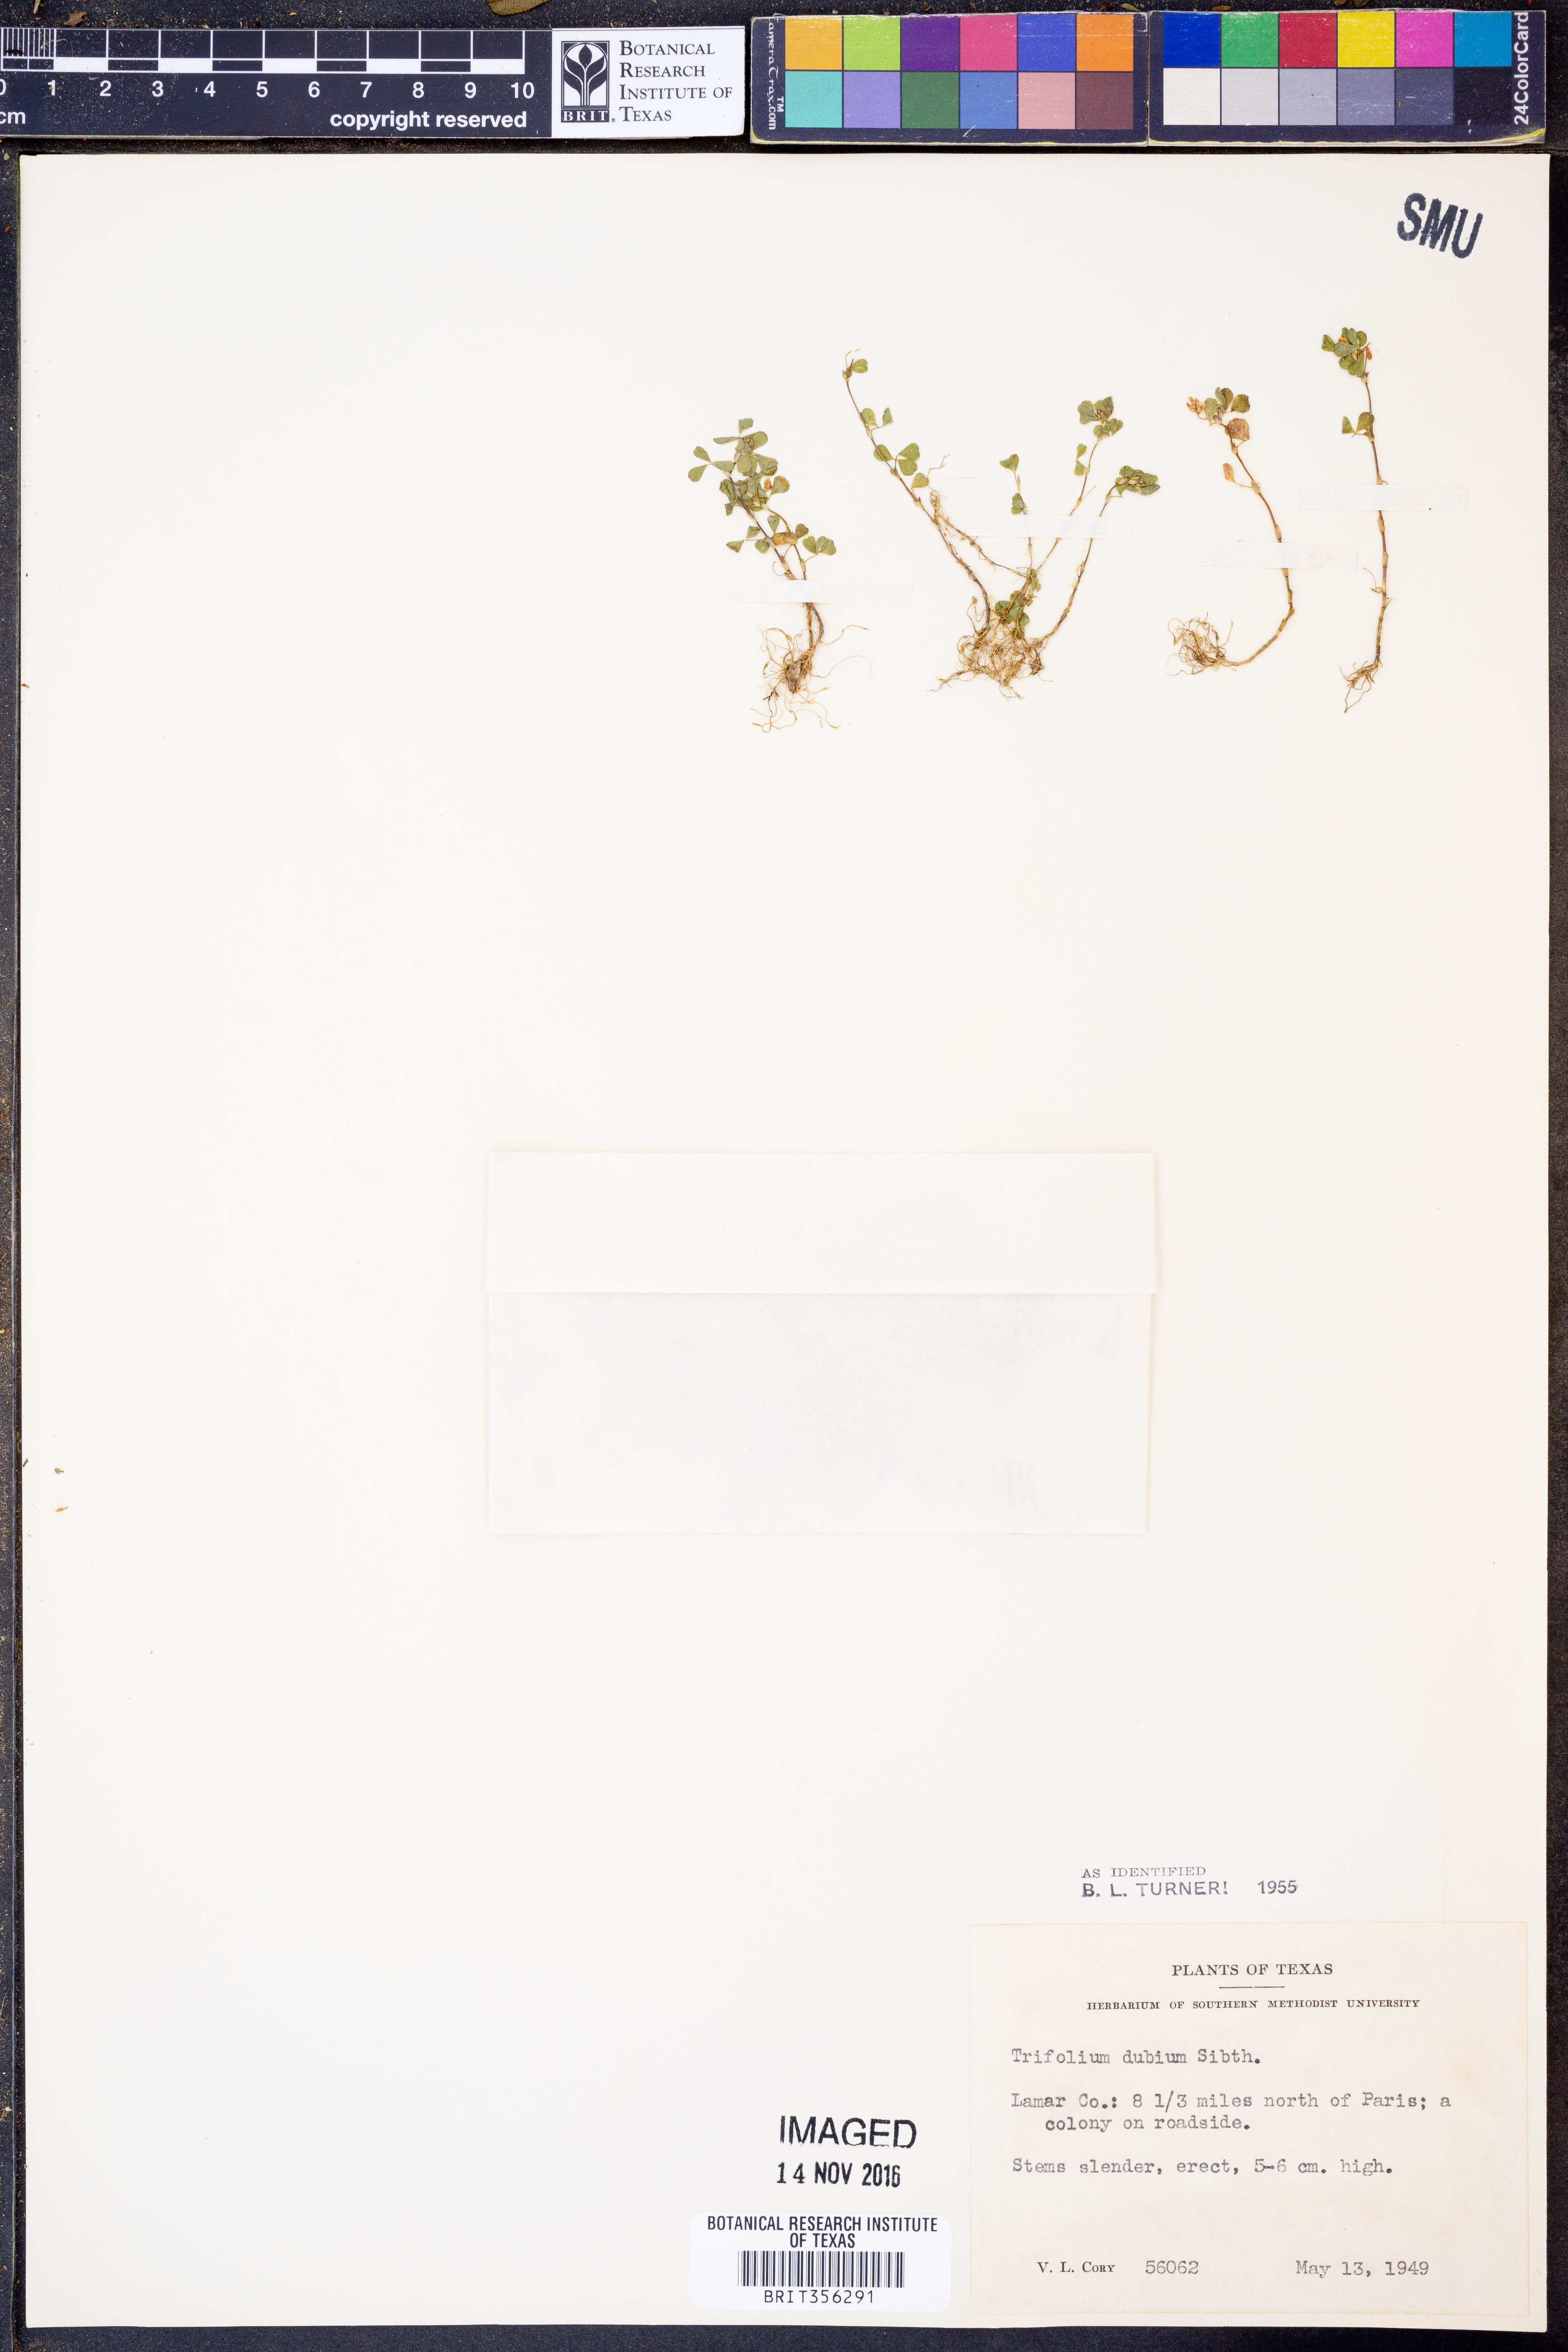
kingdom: Plantae
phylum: Tracheophyta
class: Magnoliopsida
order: Fabales
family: Fabaceae
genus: Trifolium
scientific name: Trifolium dubium
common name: Suckling clover
